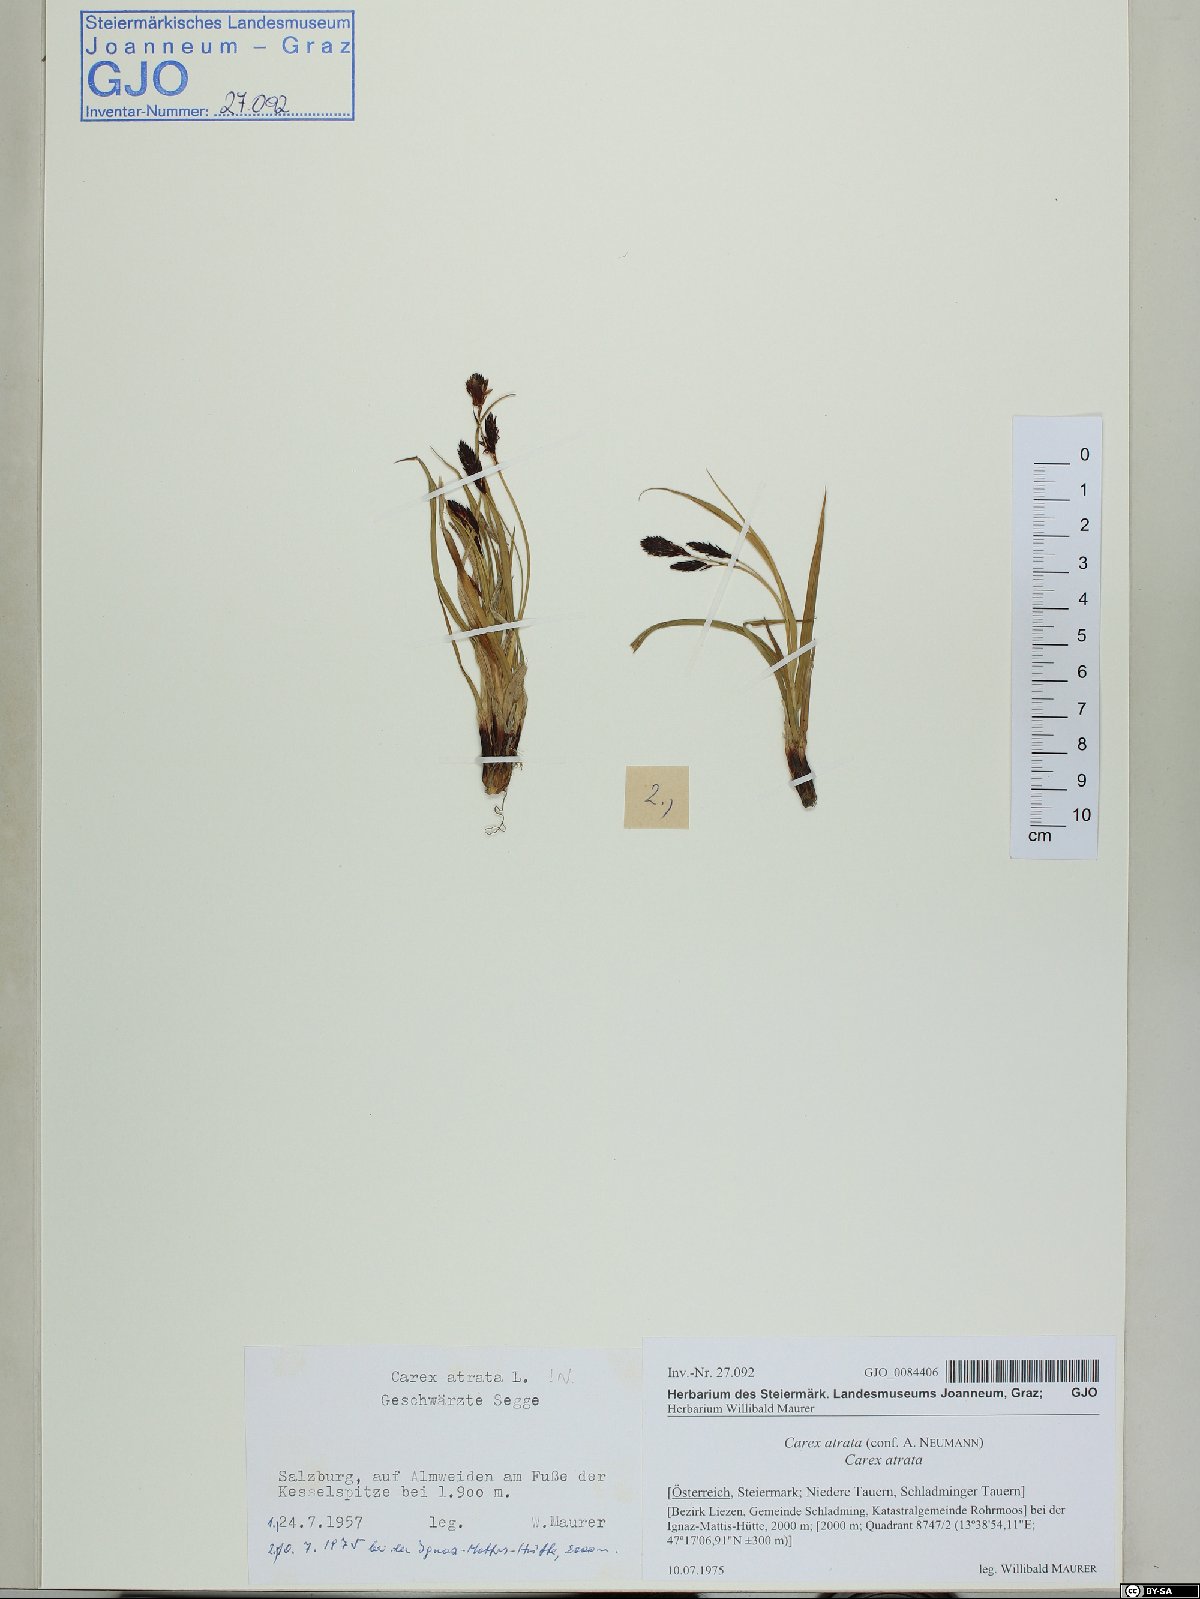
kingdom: Plantae
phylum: Tracheophyta
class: Liliopsida
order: Poales
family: Cyperaceae
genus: Carex
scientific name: Carex atrata
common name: Black alpine sedge
